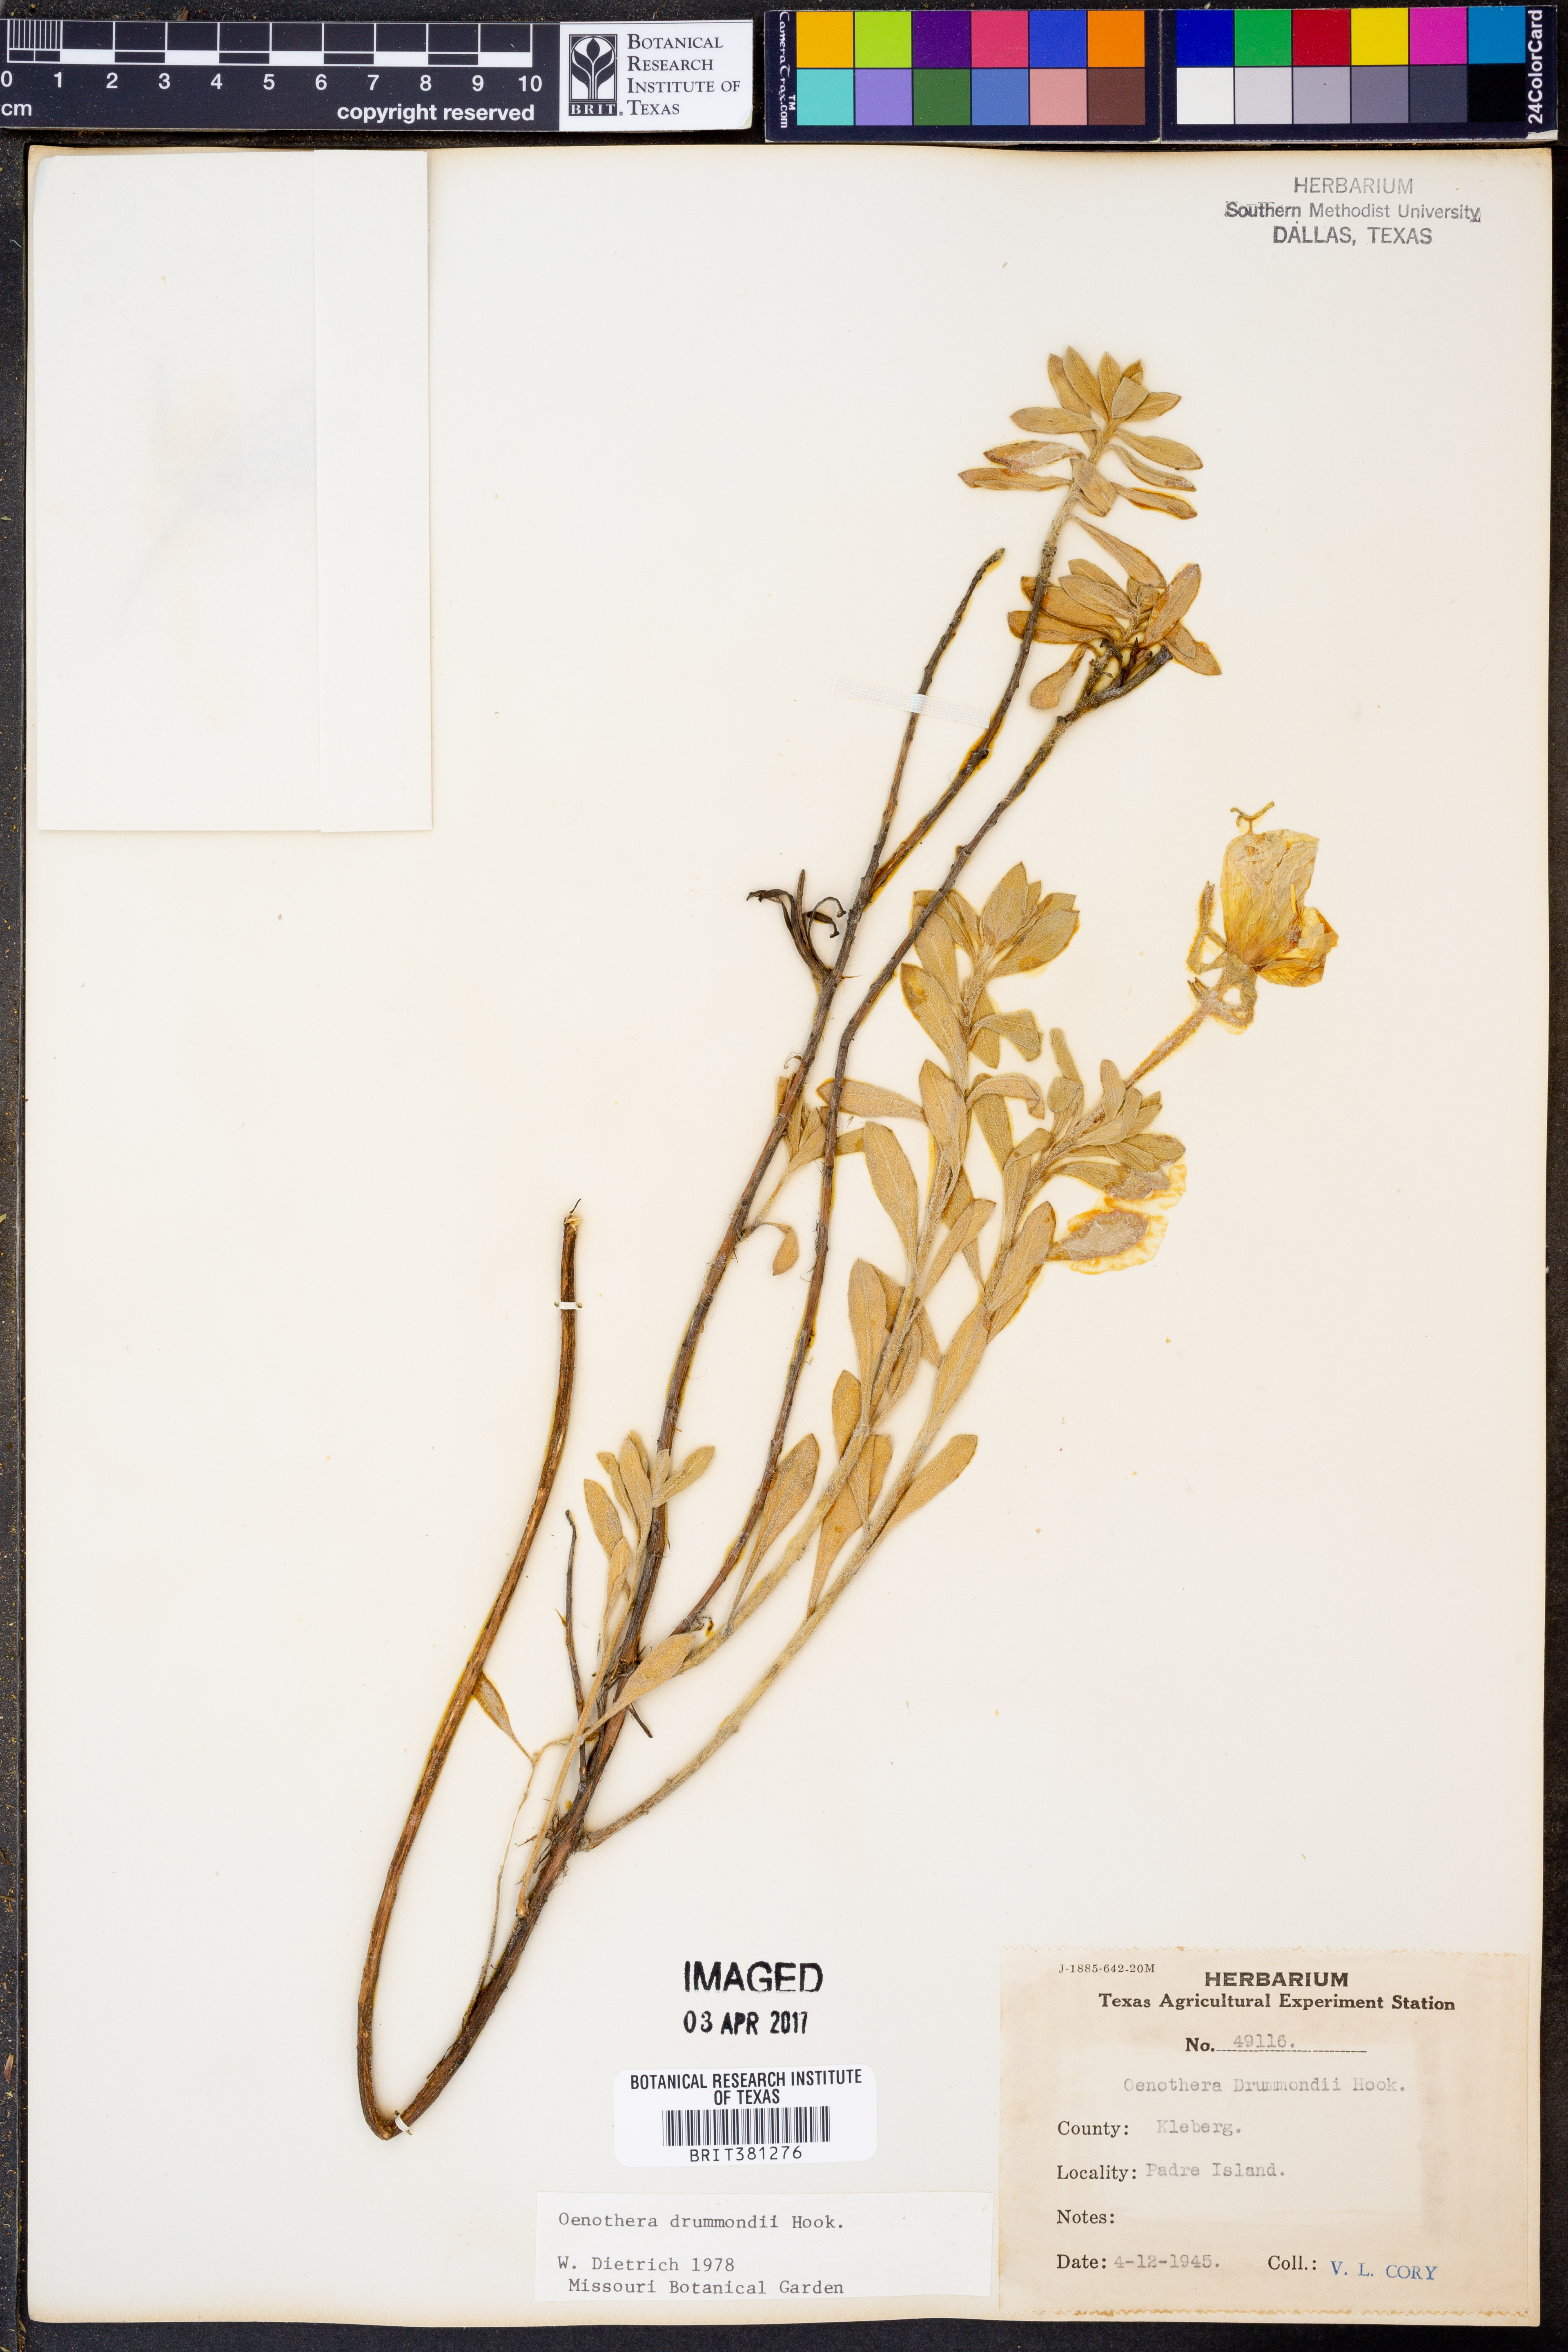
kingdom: Plantae
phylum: Tracheophyta
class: Magnoliopsida
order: Myrtales
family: Onagraceae
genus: Oenothera
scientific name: Oenothera drummondii
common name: Beach evening-primrose
